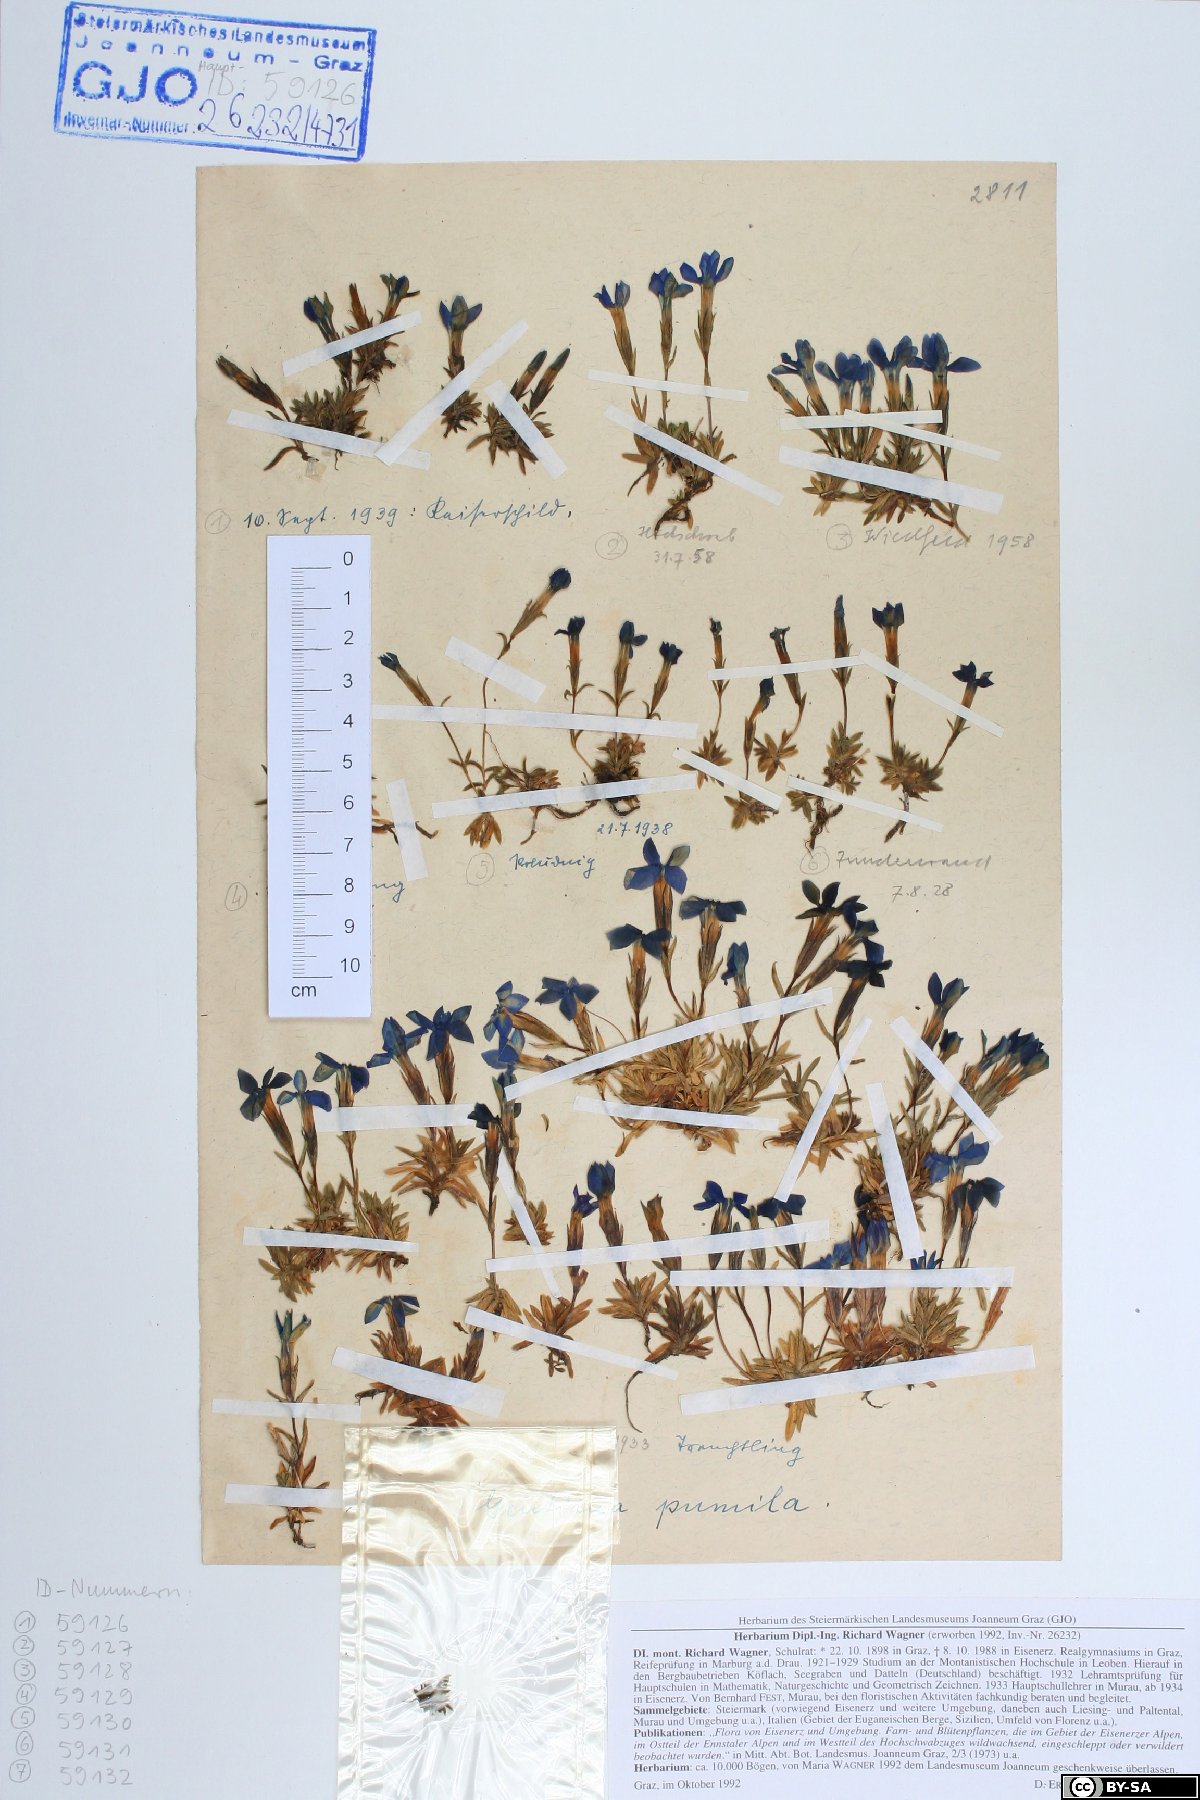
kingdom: Plantae
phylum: Tracheophyta
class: Magnoliopsida
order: Gentianales
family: Gentianaceae
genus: Gentiana
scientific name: Gentiana pumila
